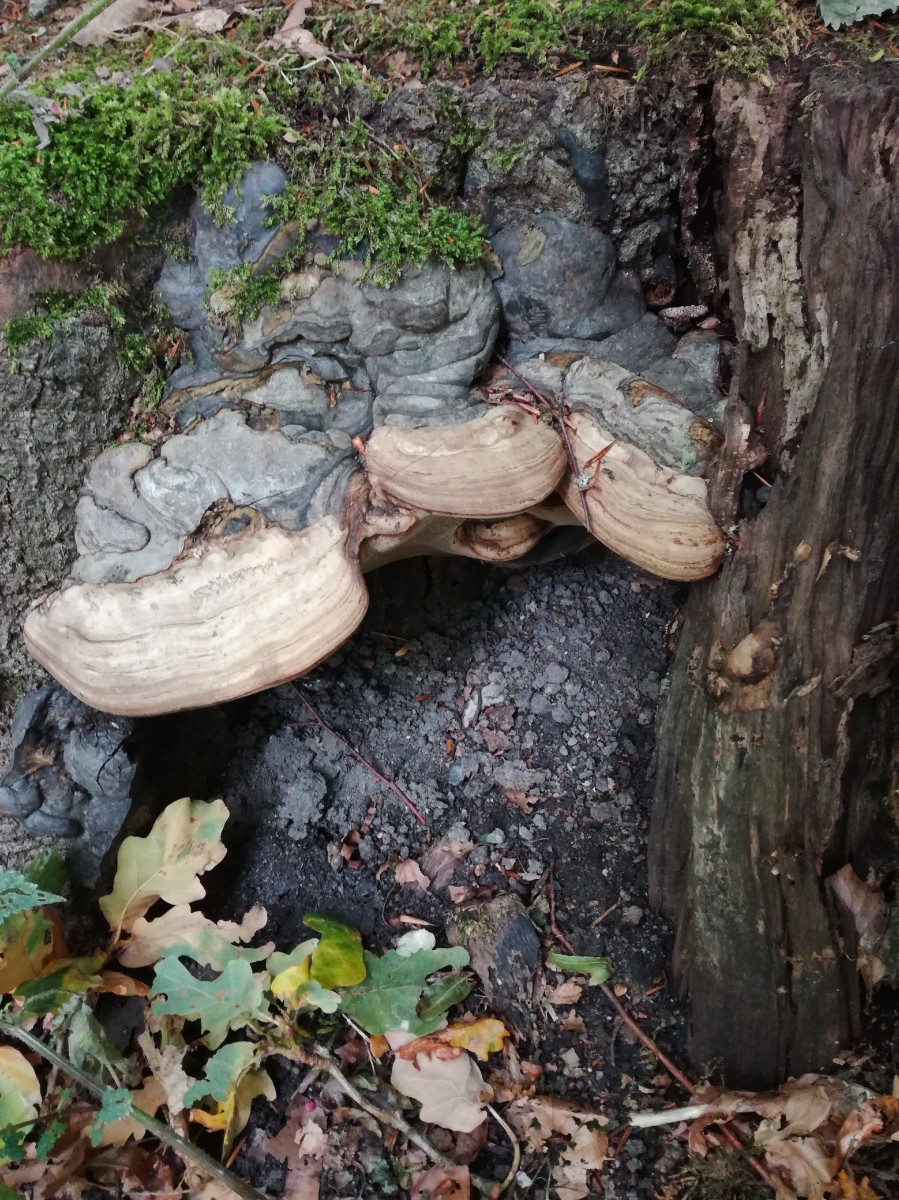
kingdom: Fungi
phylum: Basidiomycota
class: Agaricomycetes
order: Polyporales
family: Polyporaceae
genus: Fomes
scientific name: Fomes fomentarius
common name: tøndersvamp
